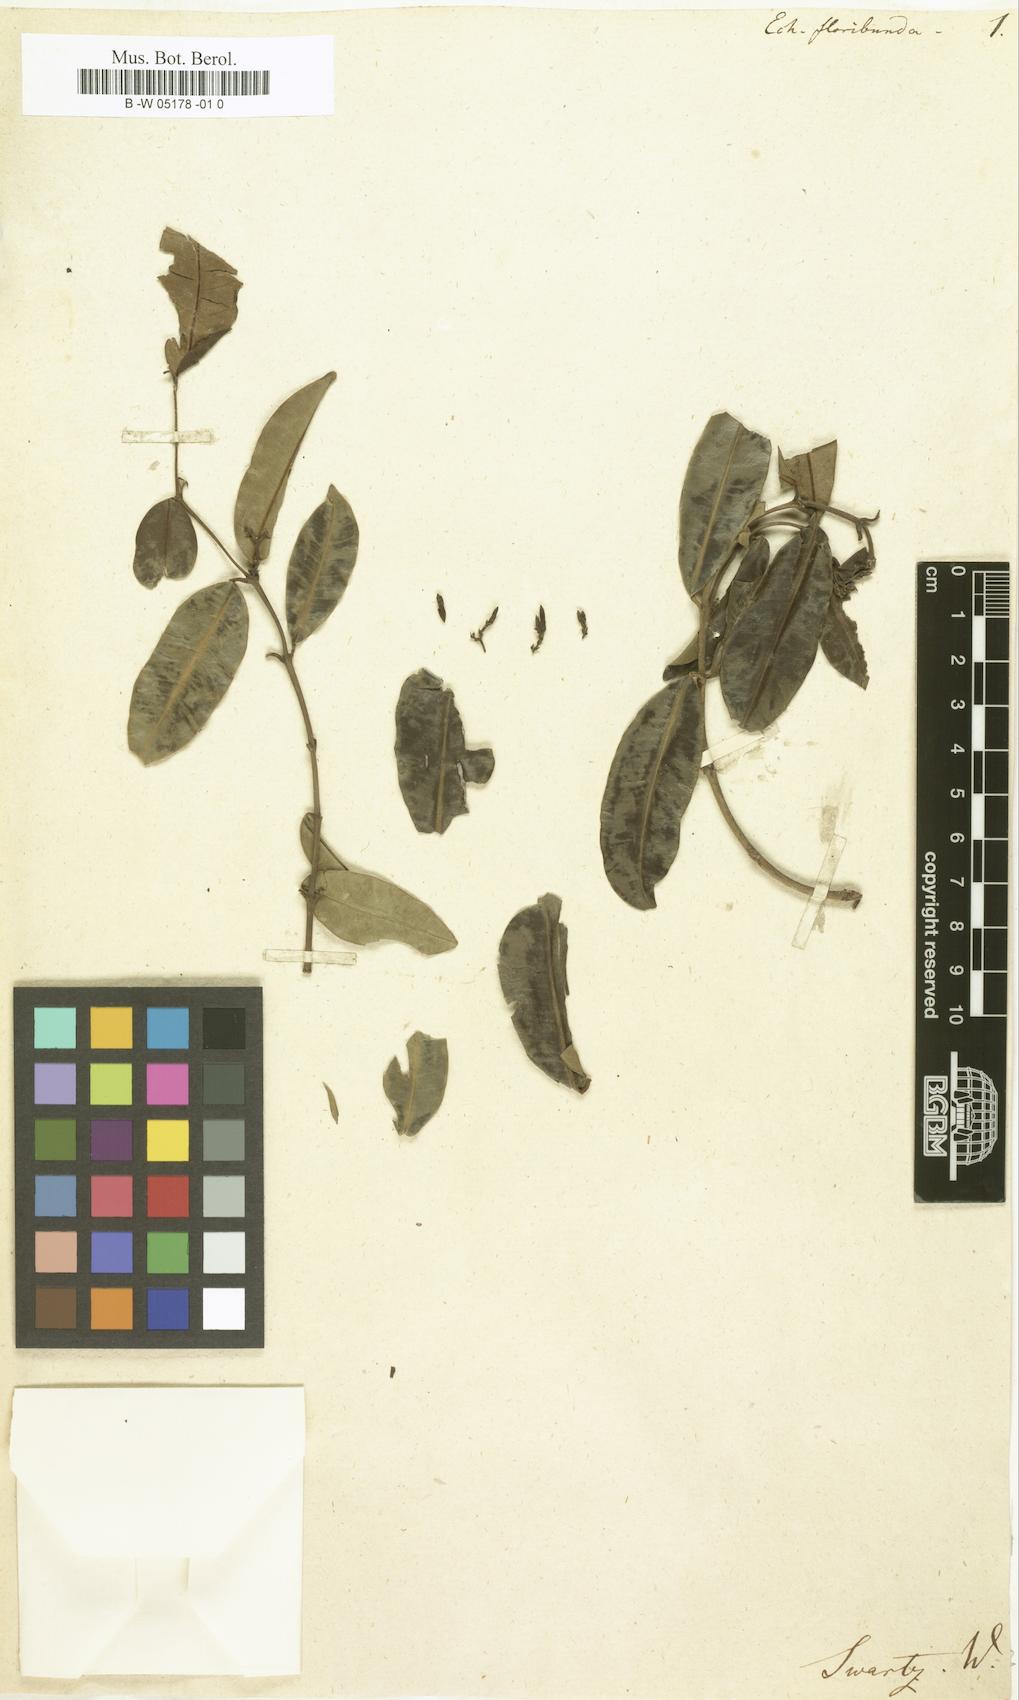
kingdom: Plantae
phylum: Tracheophyta
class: Magnoliopsida
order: Gentianales
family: Apocynaceae
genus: Pinochia
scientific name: Pinochia floribunda
